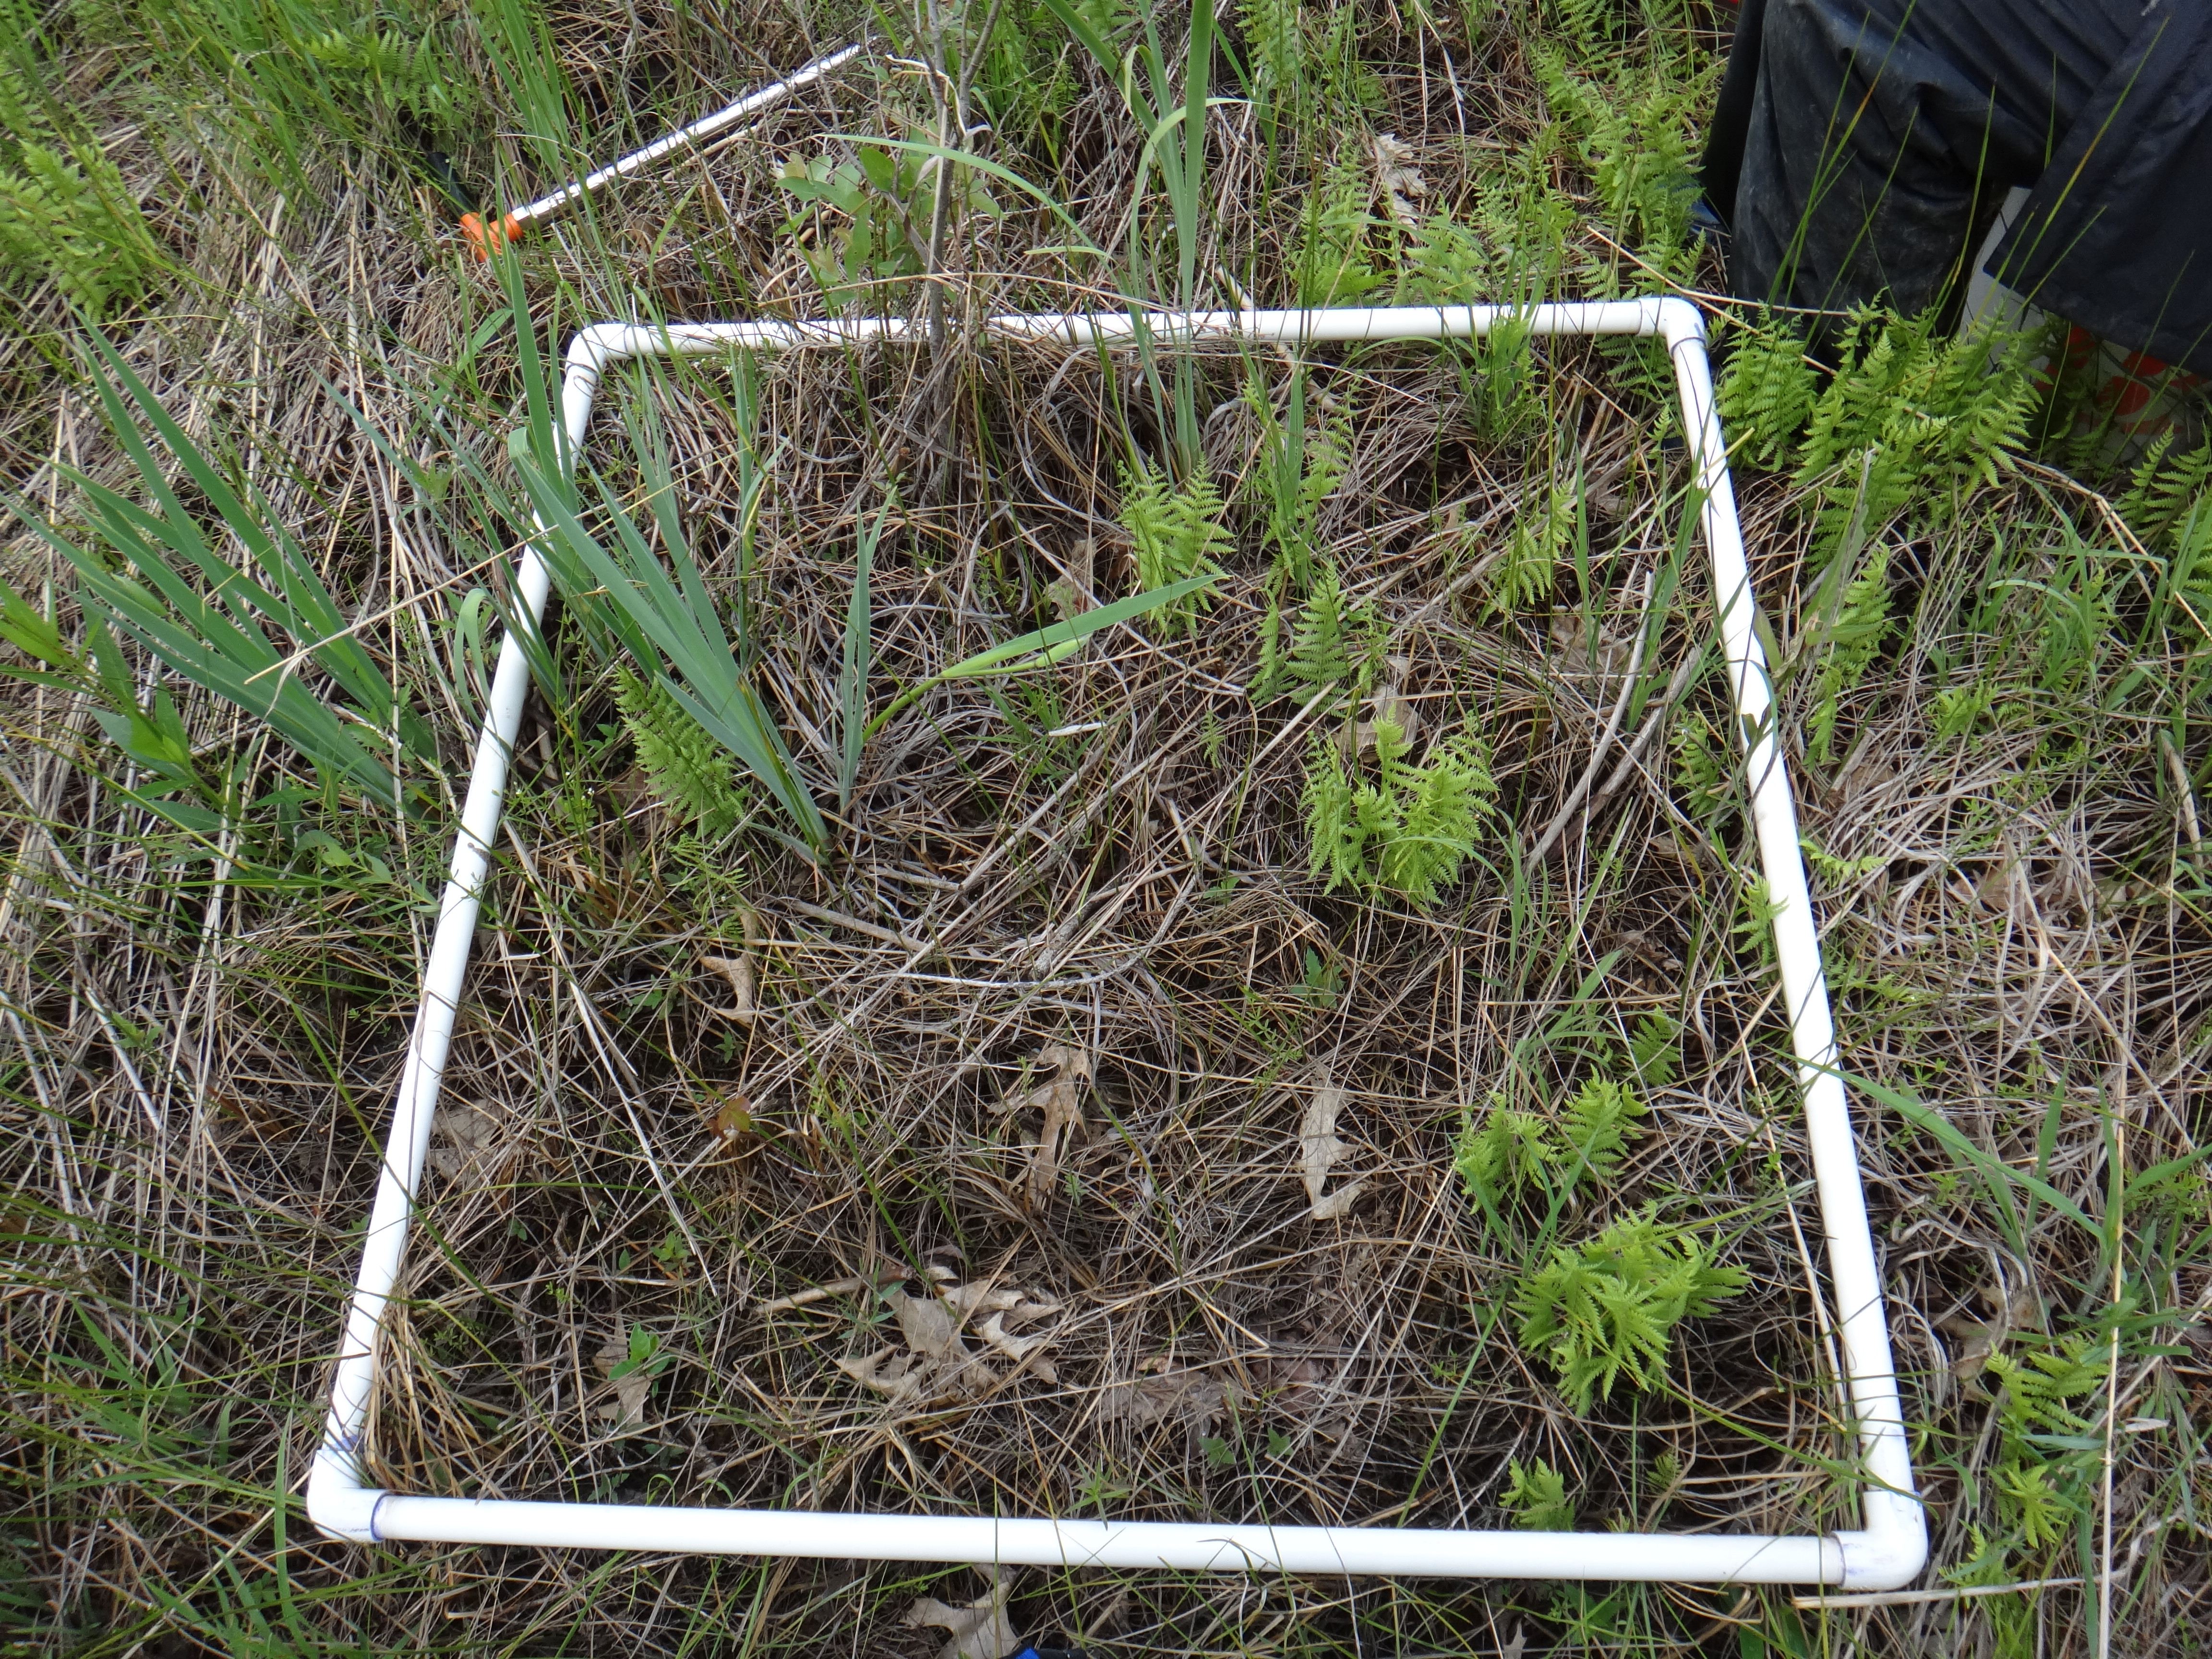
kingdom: Plantae
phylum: Tracheophyta
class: Magnoliopsida
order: Sapindales
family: Sapindaceae
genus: Acer
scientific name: Acer rubrum
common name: Red maple
